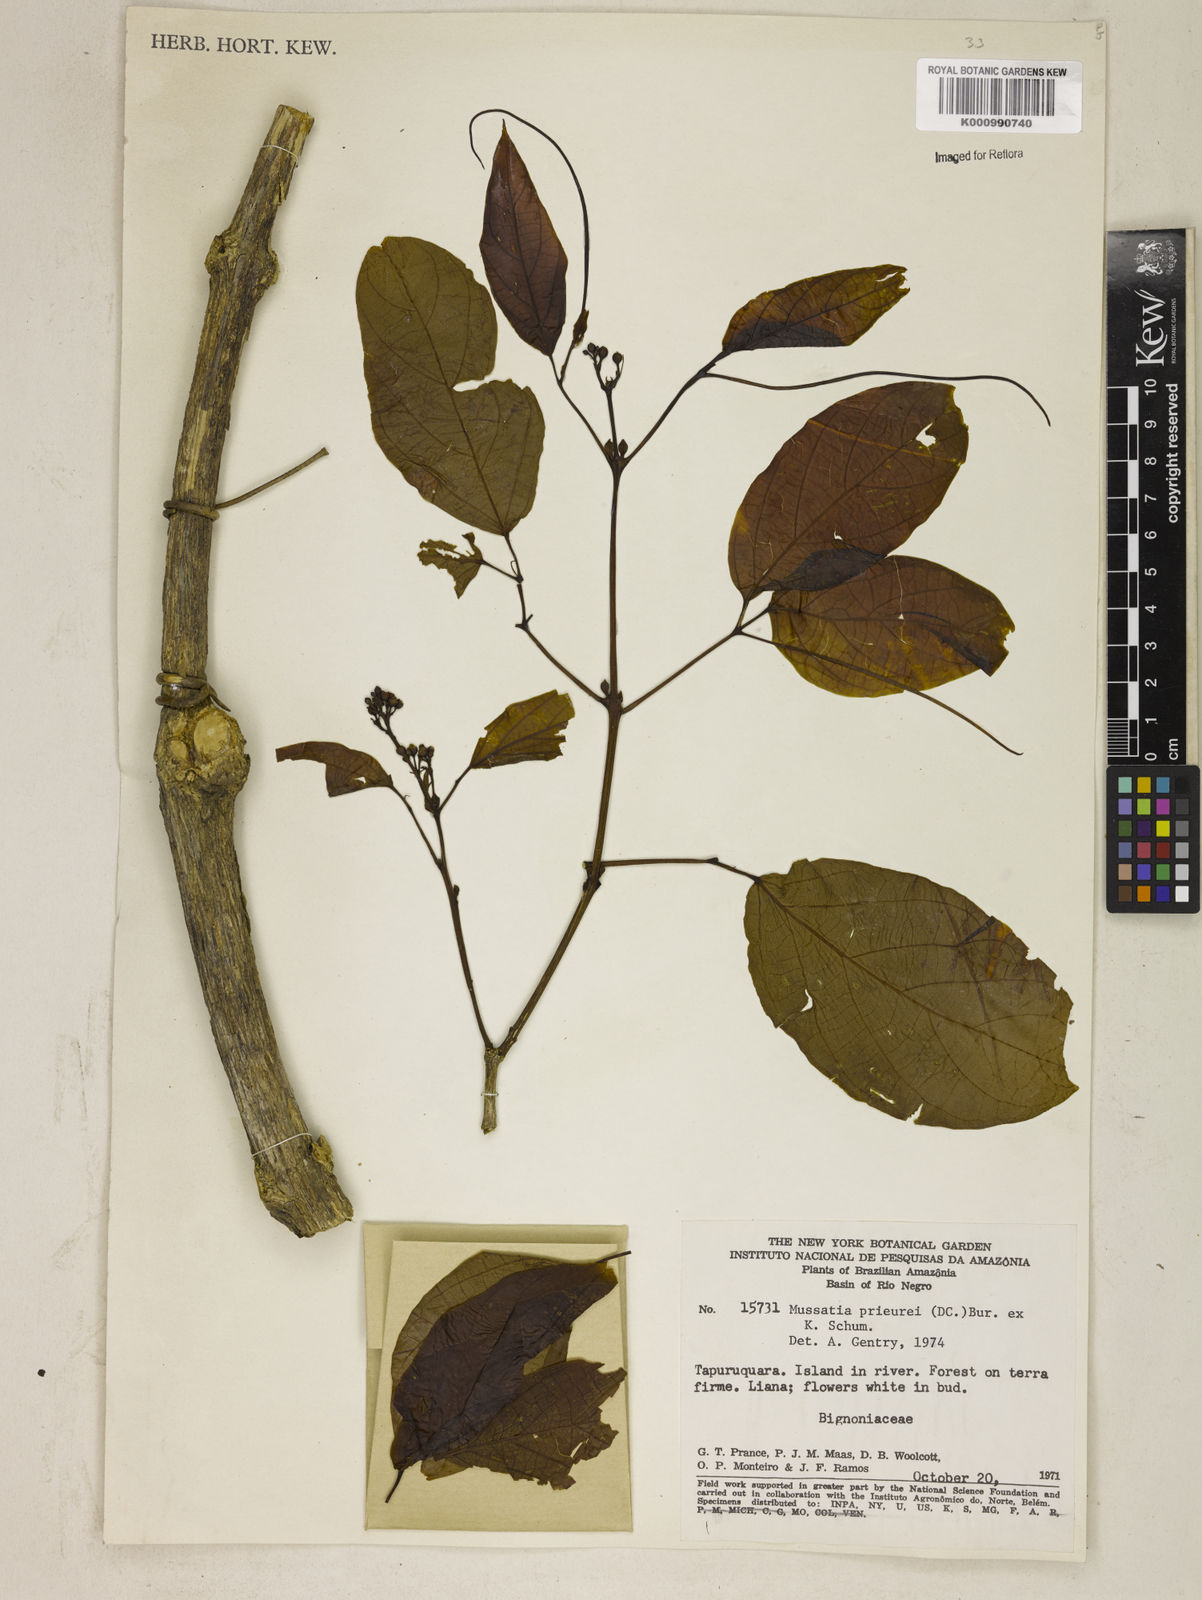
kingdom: Plantae
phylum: Tracheophyta
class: Magnoliopsida
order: Lamiales
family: Bignoniaceae
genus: Mussatia
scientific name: Mussatia
